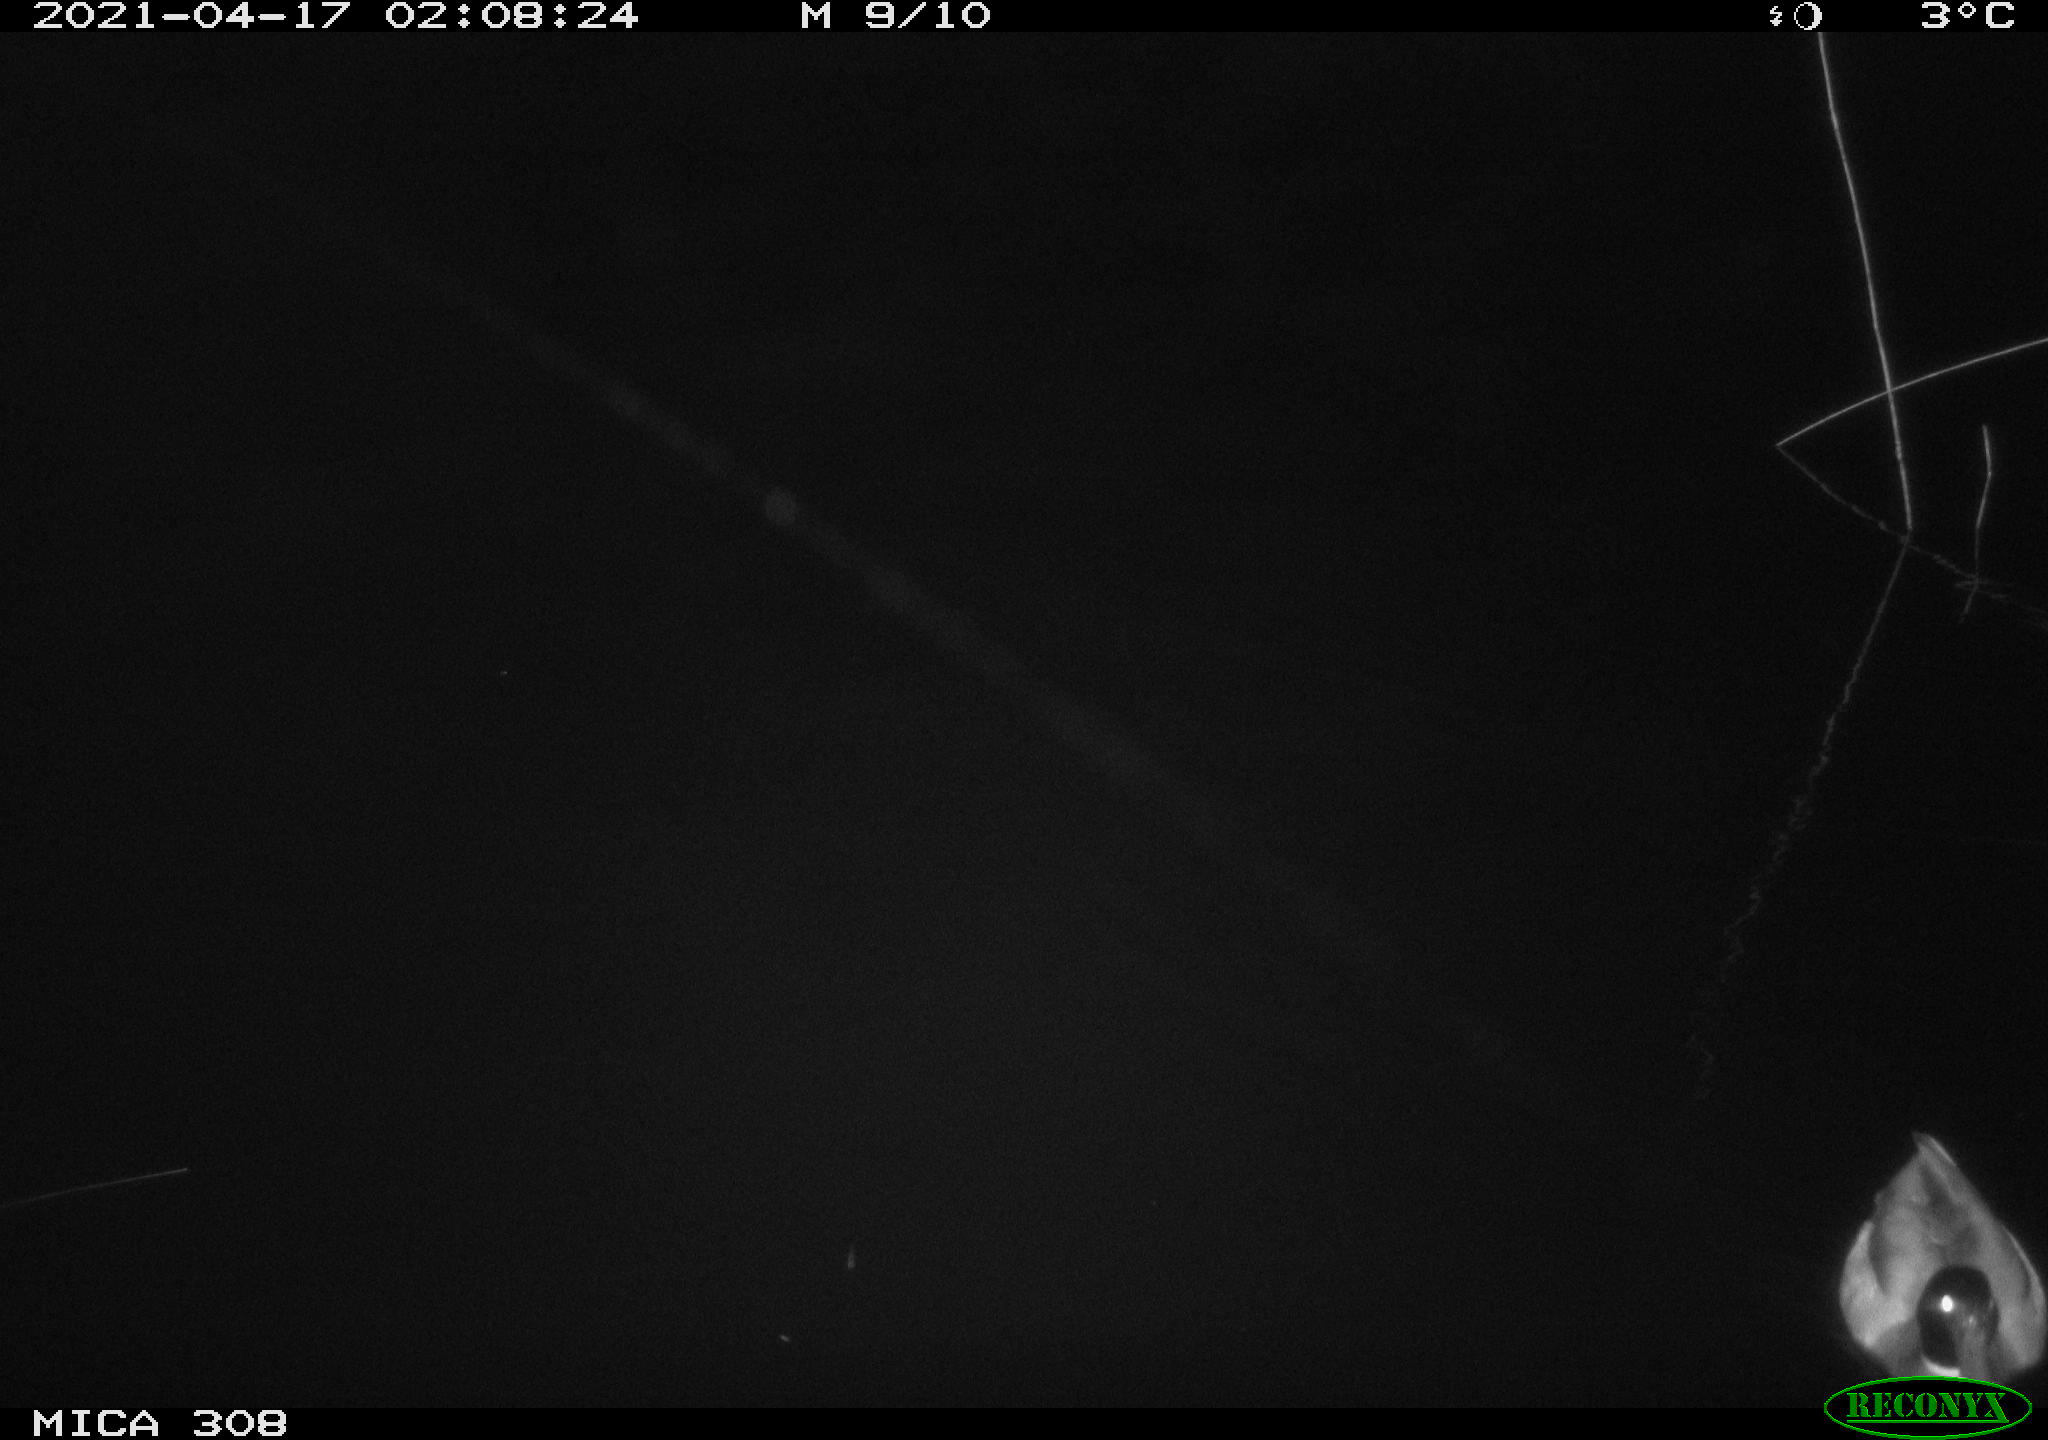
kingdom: Animalia
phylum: Chordata
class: Aves
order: Gruiformes
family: Rallidae
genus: Gallinula
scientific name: Gallinula chloropus
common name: Common moorhen
